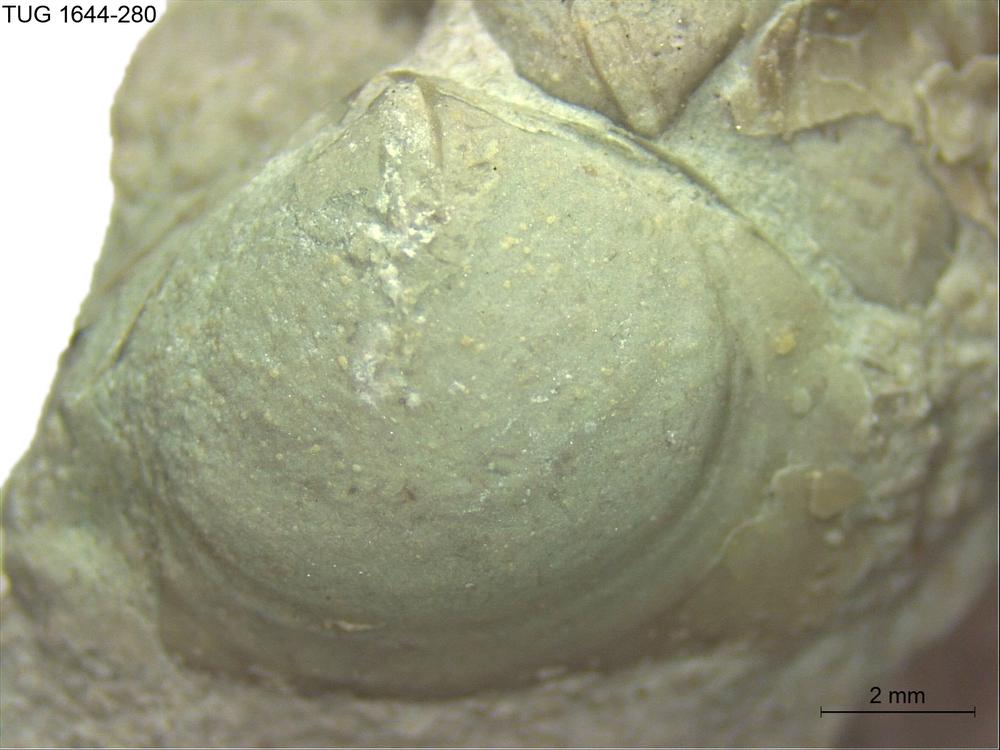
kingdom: Animalia
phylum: Brachiopoda
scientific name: Brachiopoda
